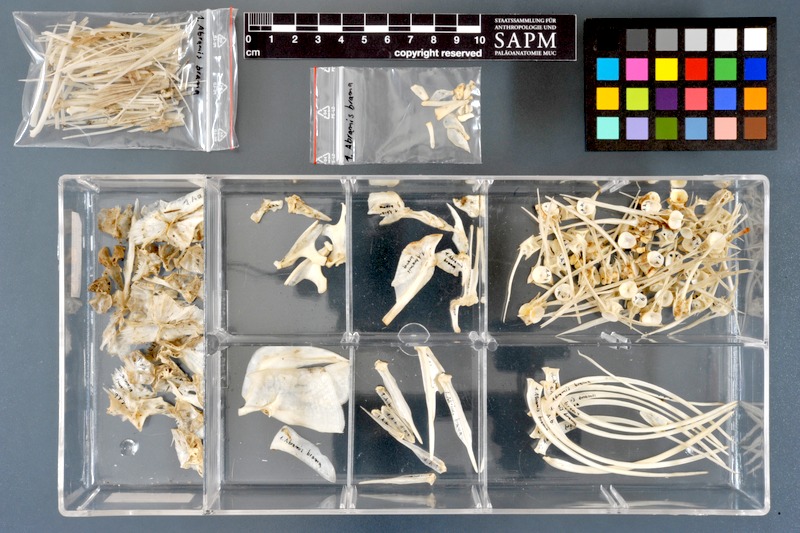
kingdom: Animalia
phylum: Chordata
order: Cypriniformes
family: Cyprinidae
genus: Abramis
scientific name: Abramis brama
